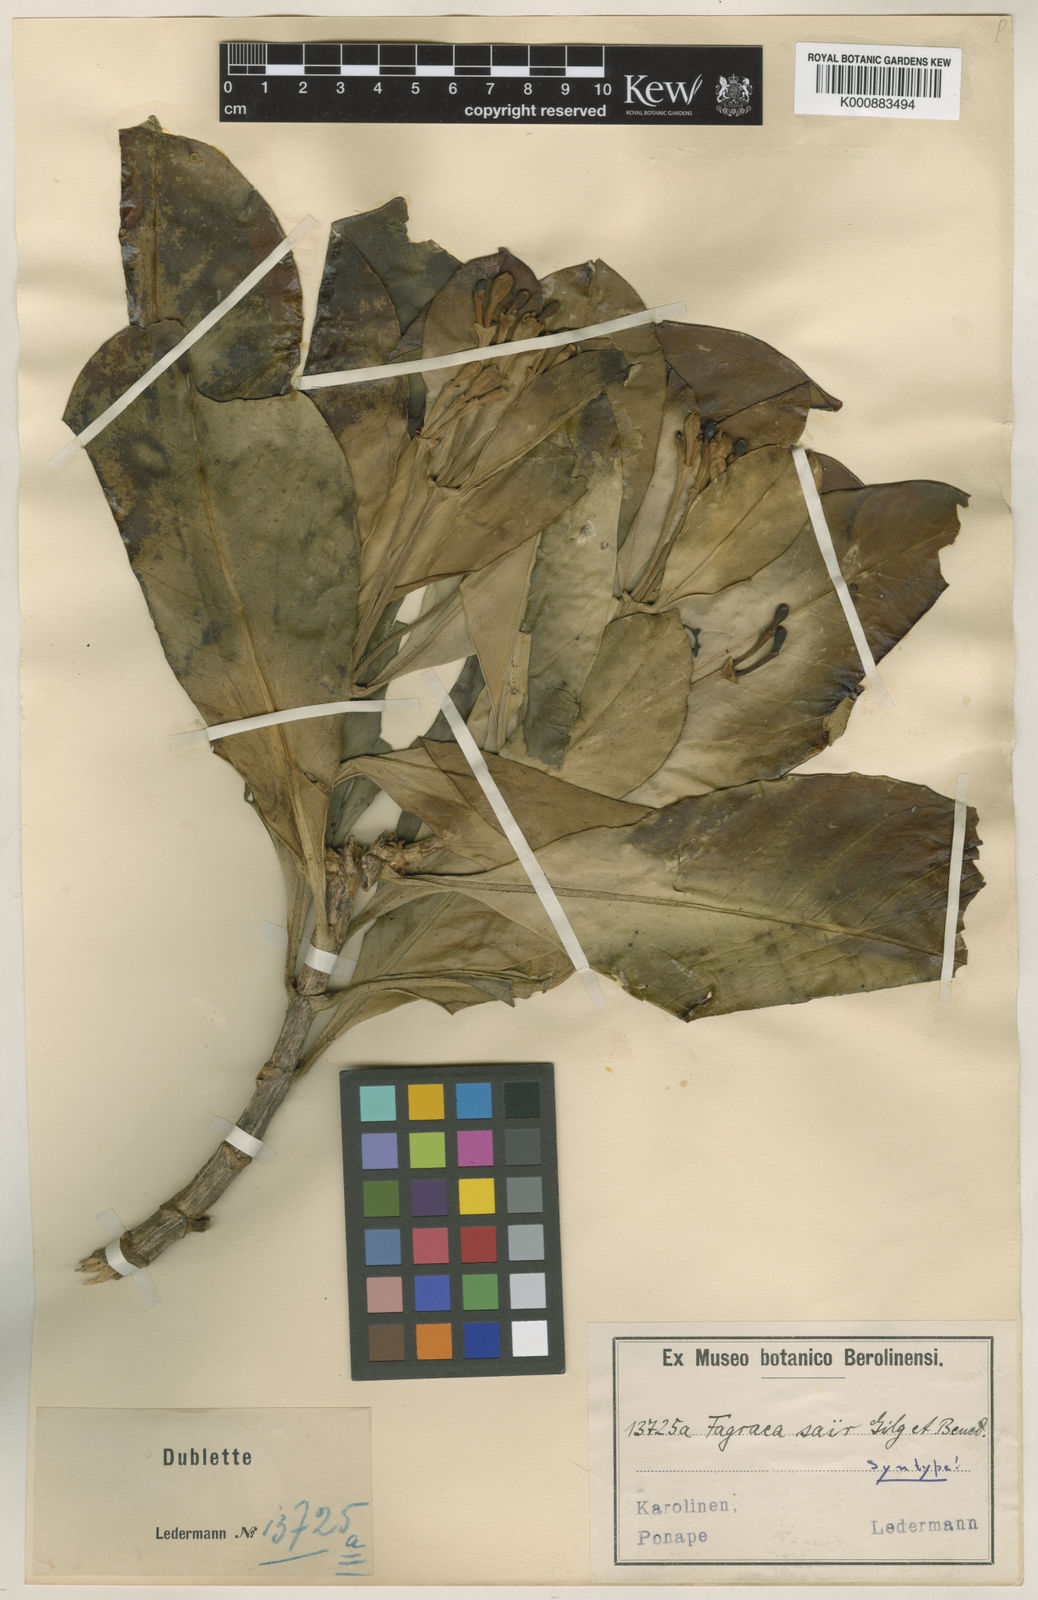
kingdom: Plantae
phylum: Tracheophyta
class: Magnoliopsida
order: Gentianales
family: Gentianaceae
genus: Fagraea
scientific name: Fagraea berteroana
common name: Cape jitta
